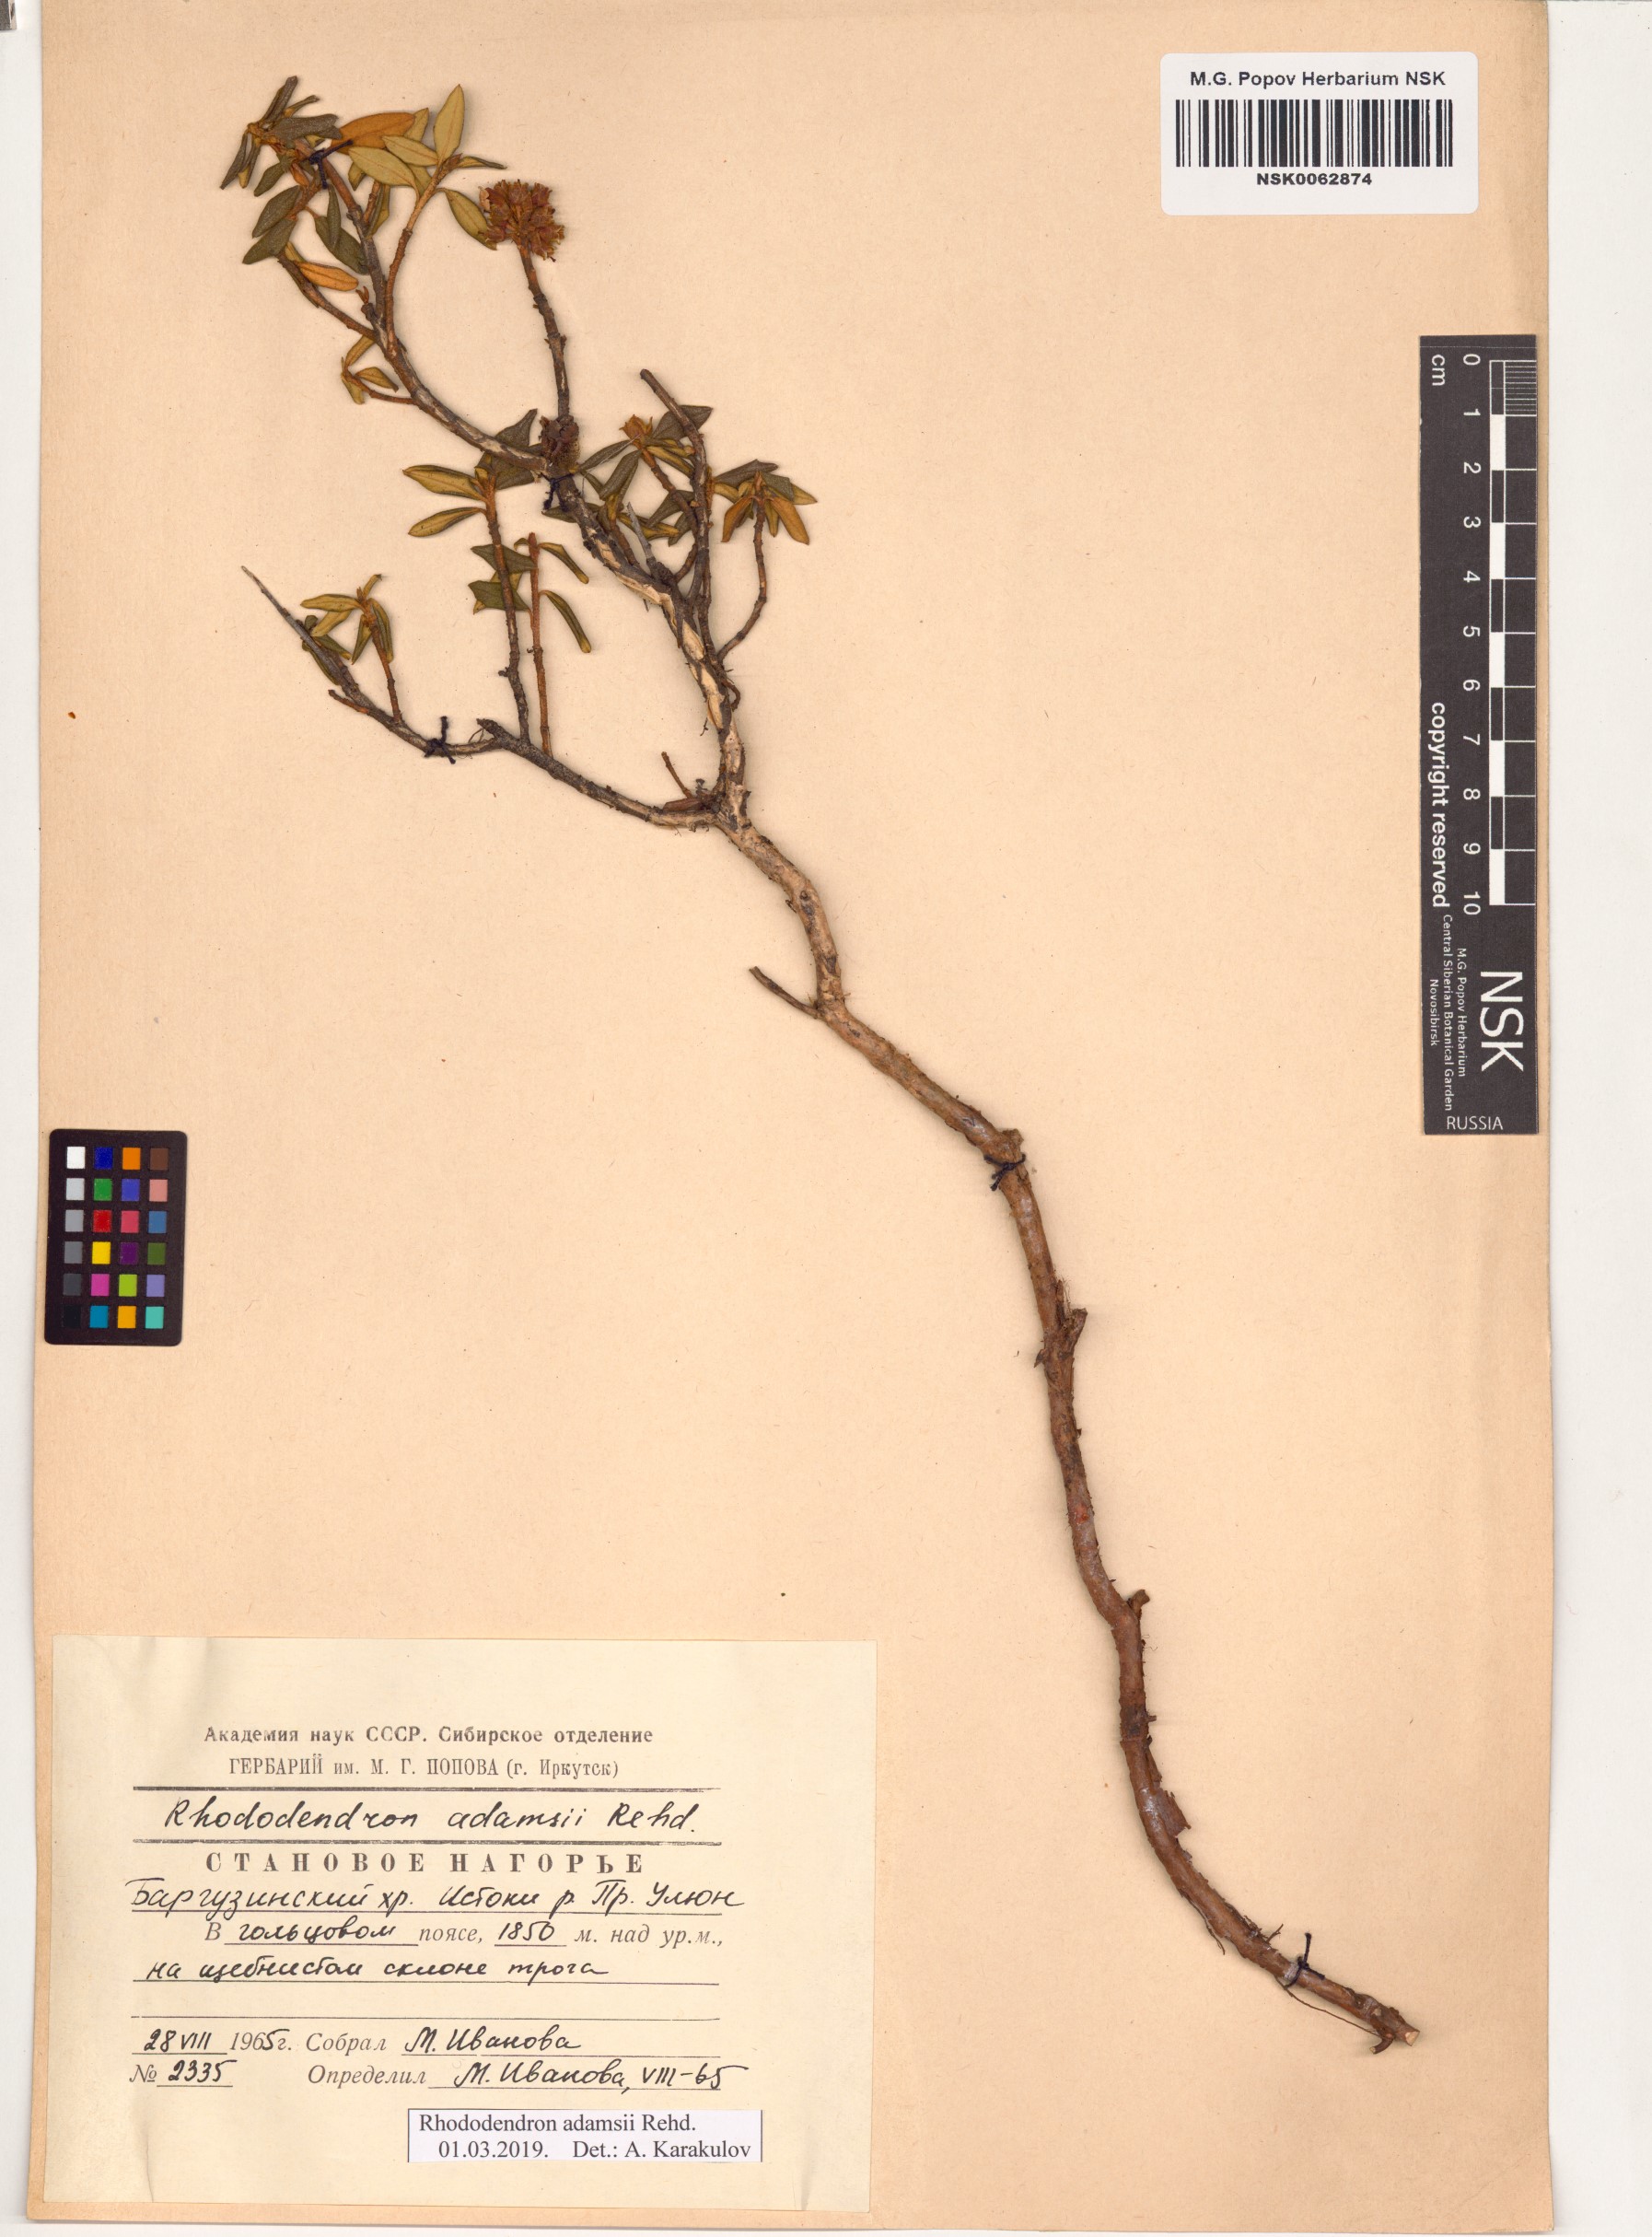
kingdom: Plantae
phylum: Tracheophyta
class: Magnoliopsida
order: Ericales
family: Ericaceae
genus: Rhododendron
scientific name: Rhododendron adamsii
